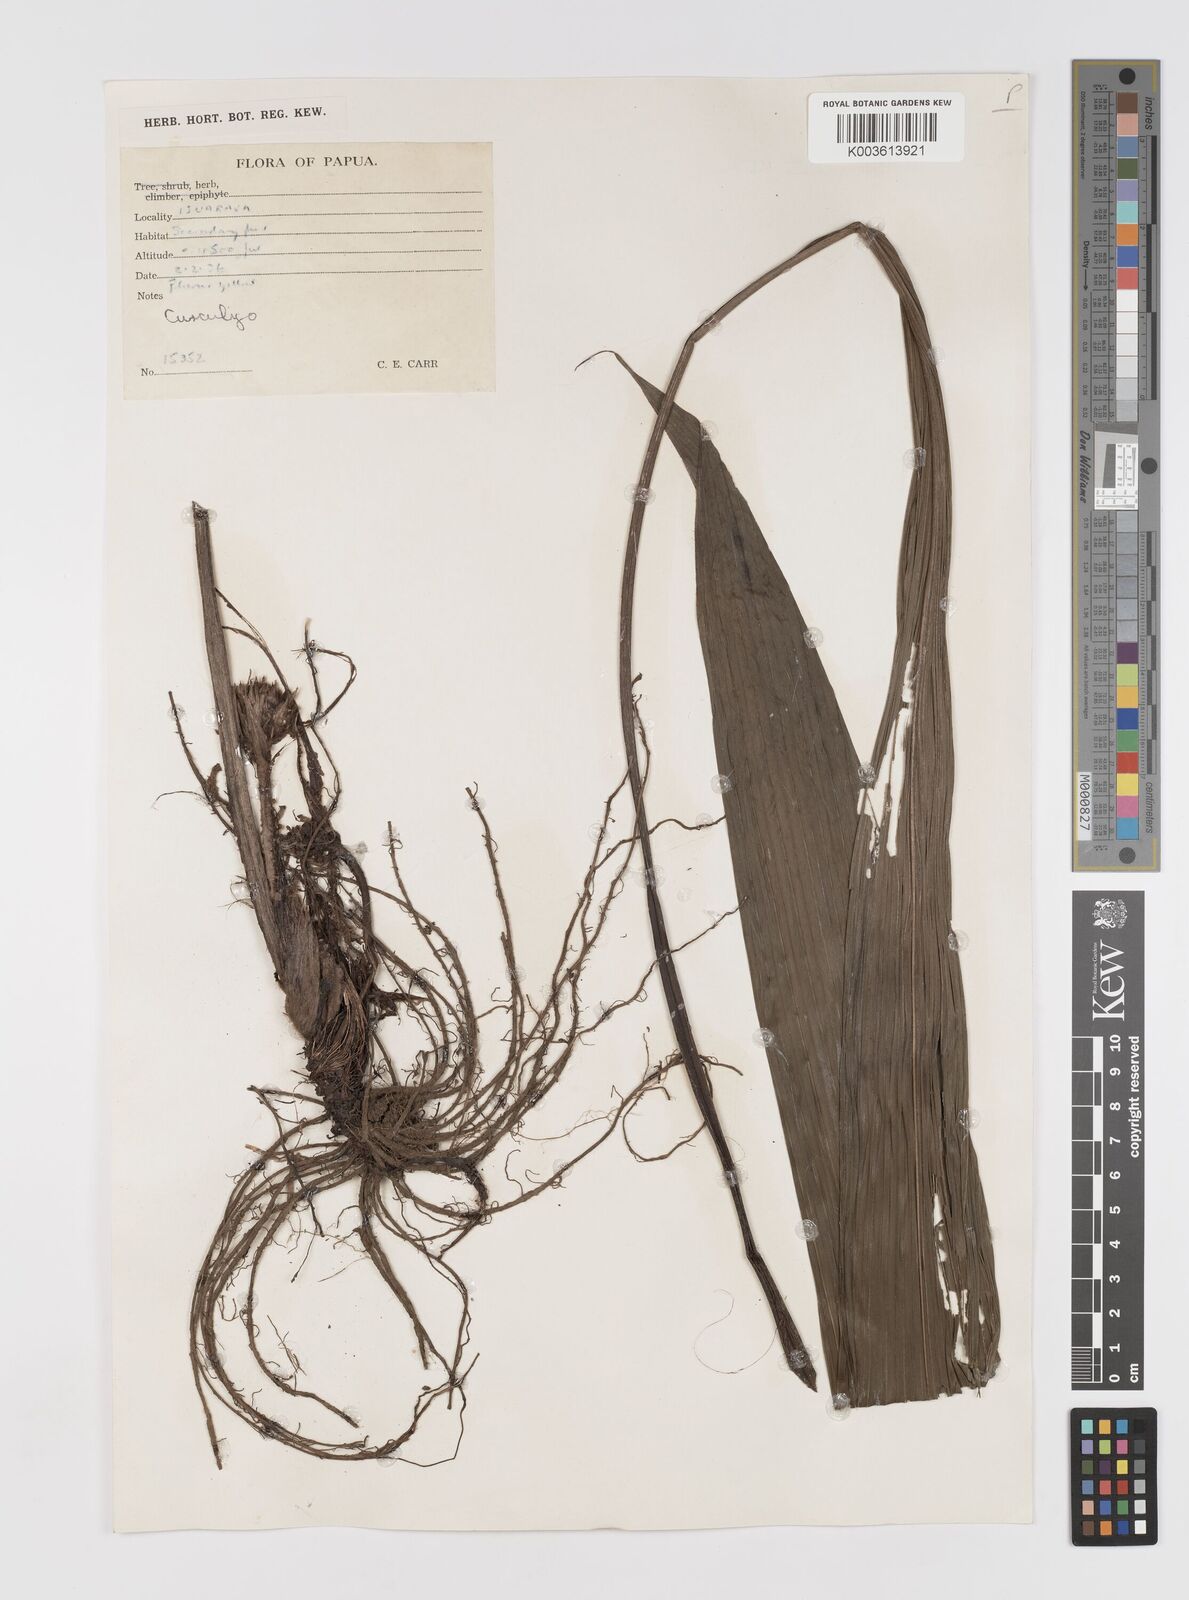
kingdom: Plantae
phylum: Tracheophyta
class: Liliopsida
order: Asparagales
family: Hypoxidaceae
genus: Curculigo
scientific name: Curculigo
